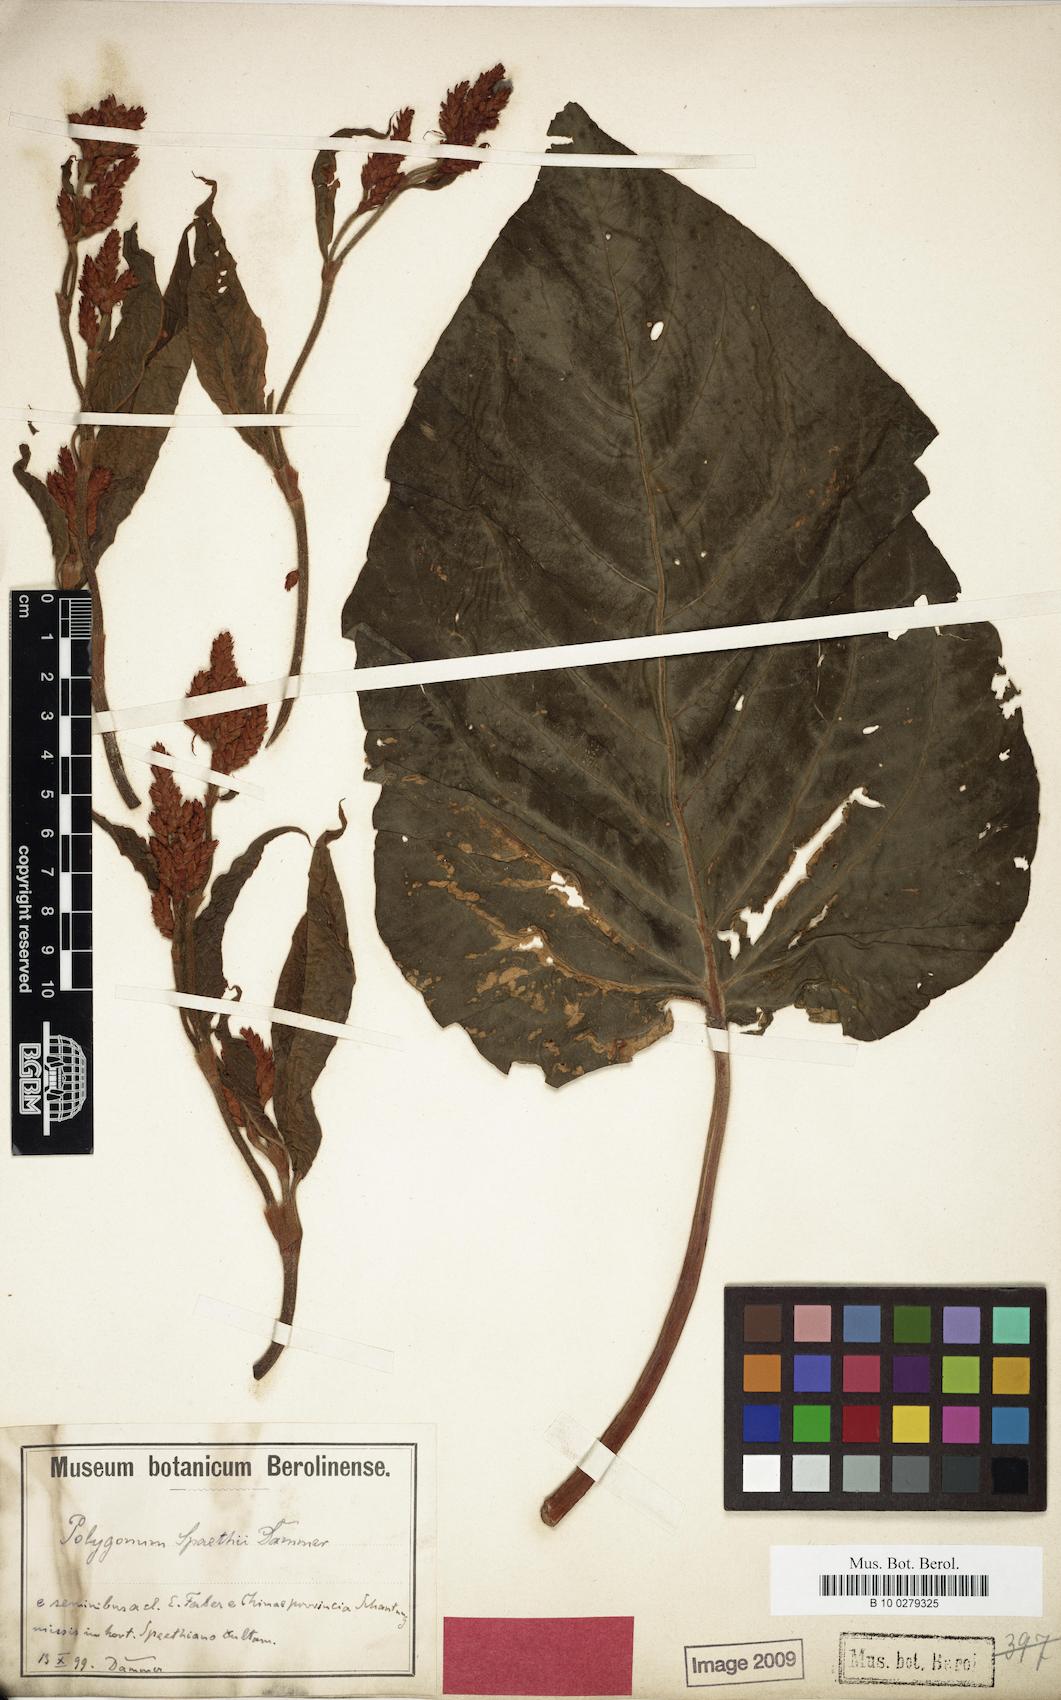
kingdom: Plantae
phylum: Tracheophyta
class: Magnoliopsida
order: Caryophyllales
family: Polygonaceae
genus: Persicaria
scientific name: Persicaria orientalis
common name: Kiss-me-over-the-garden-gate
